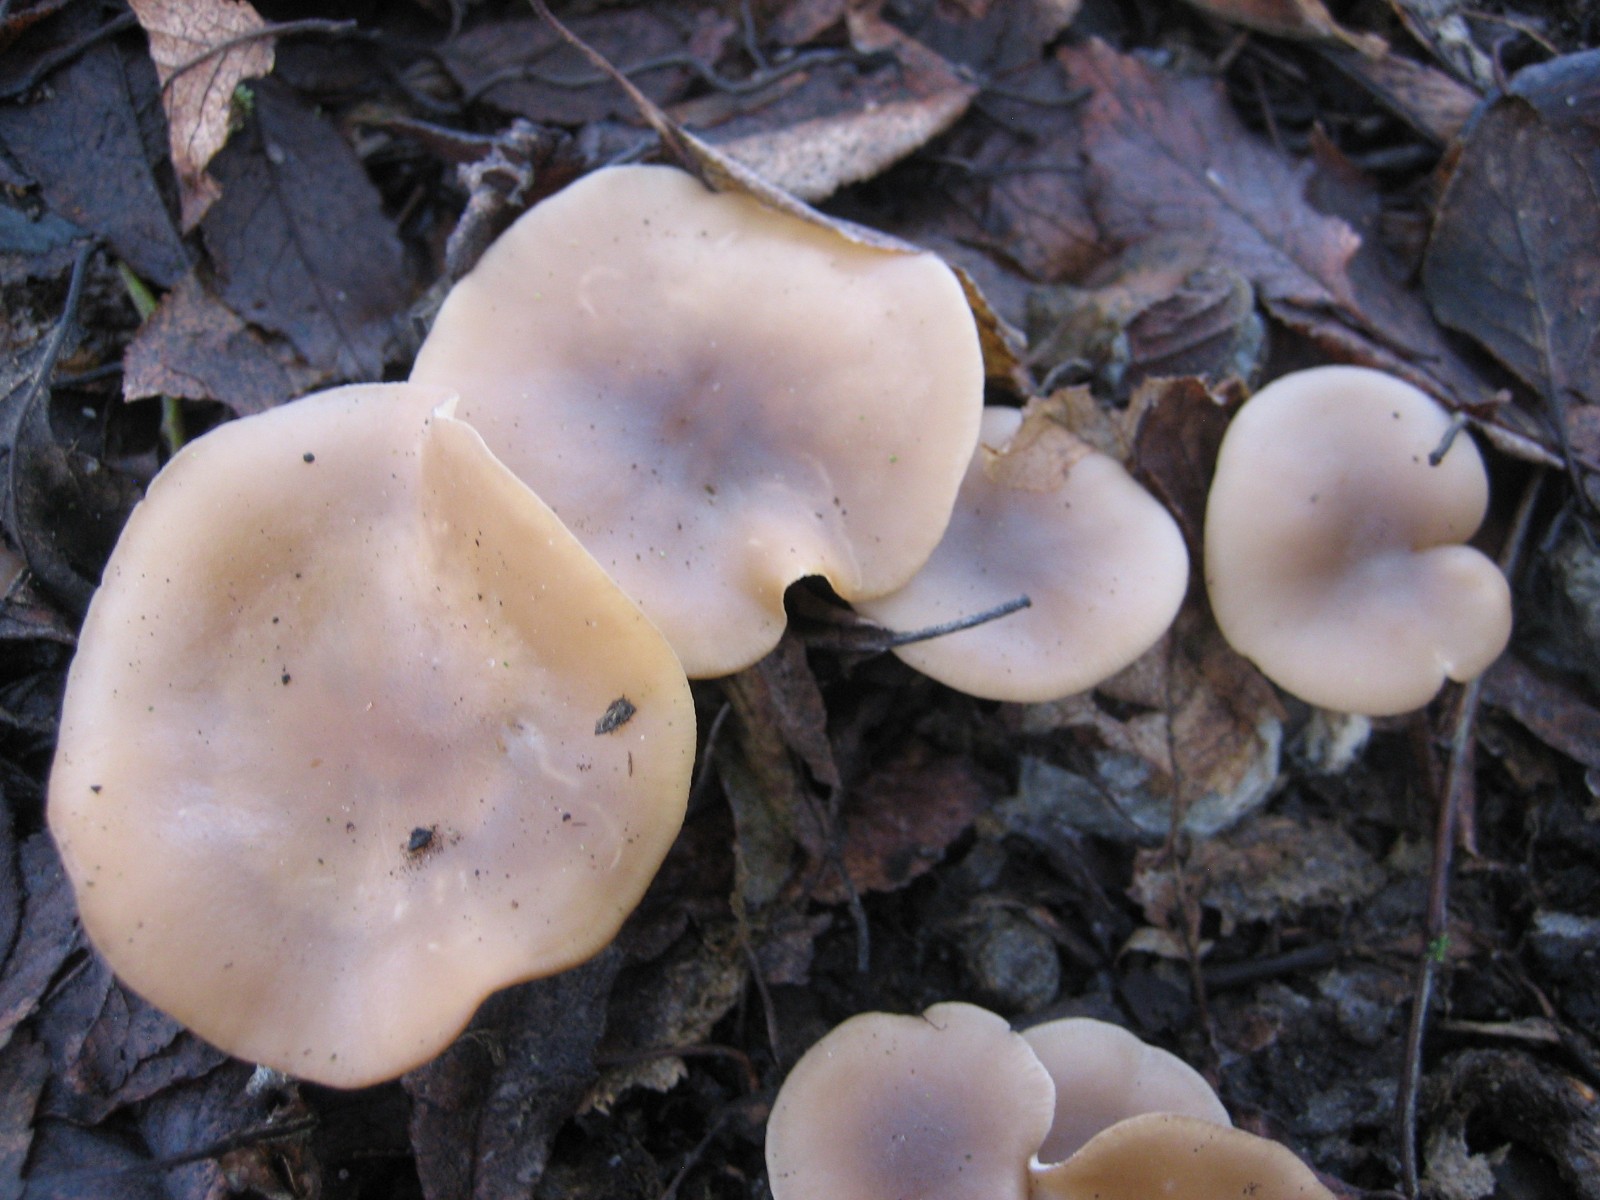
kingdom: Fungi
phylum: Basidiomycota
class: Agaricomycetes
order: Agaricales
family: Tricholomataceae
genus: Clitocybe
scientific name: Clitocybe
